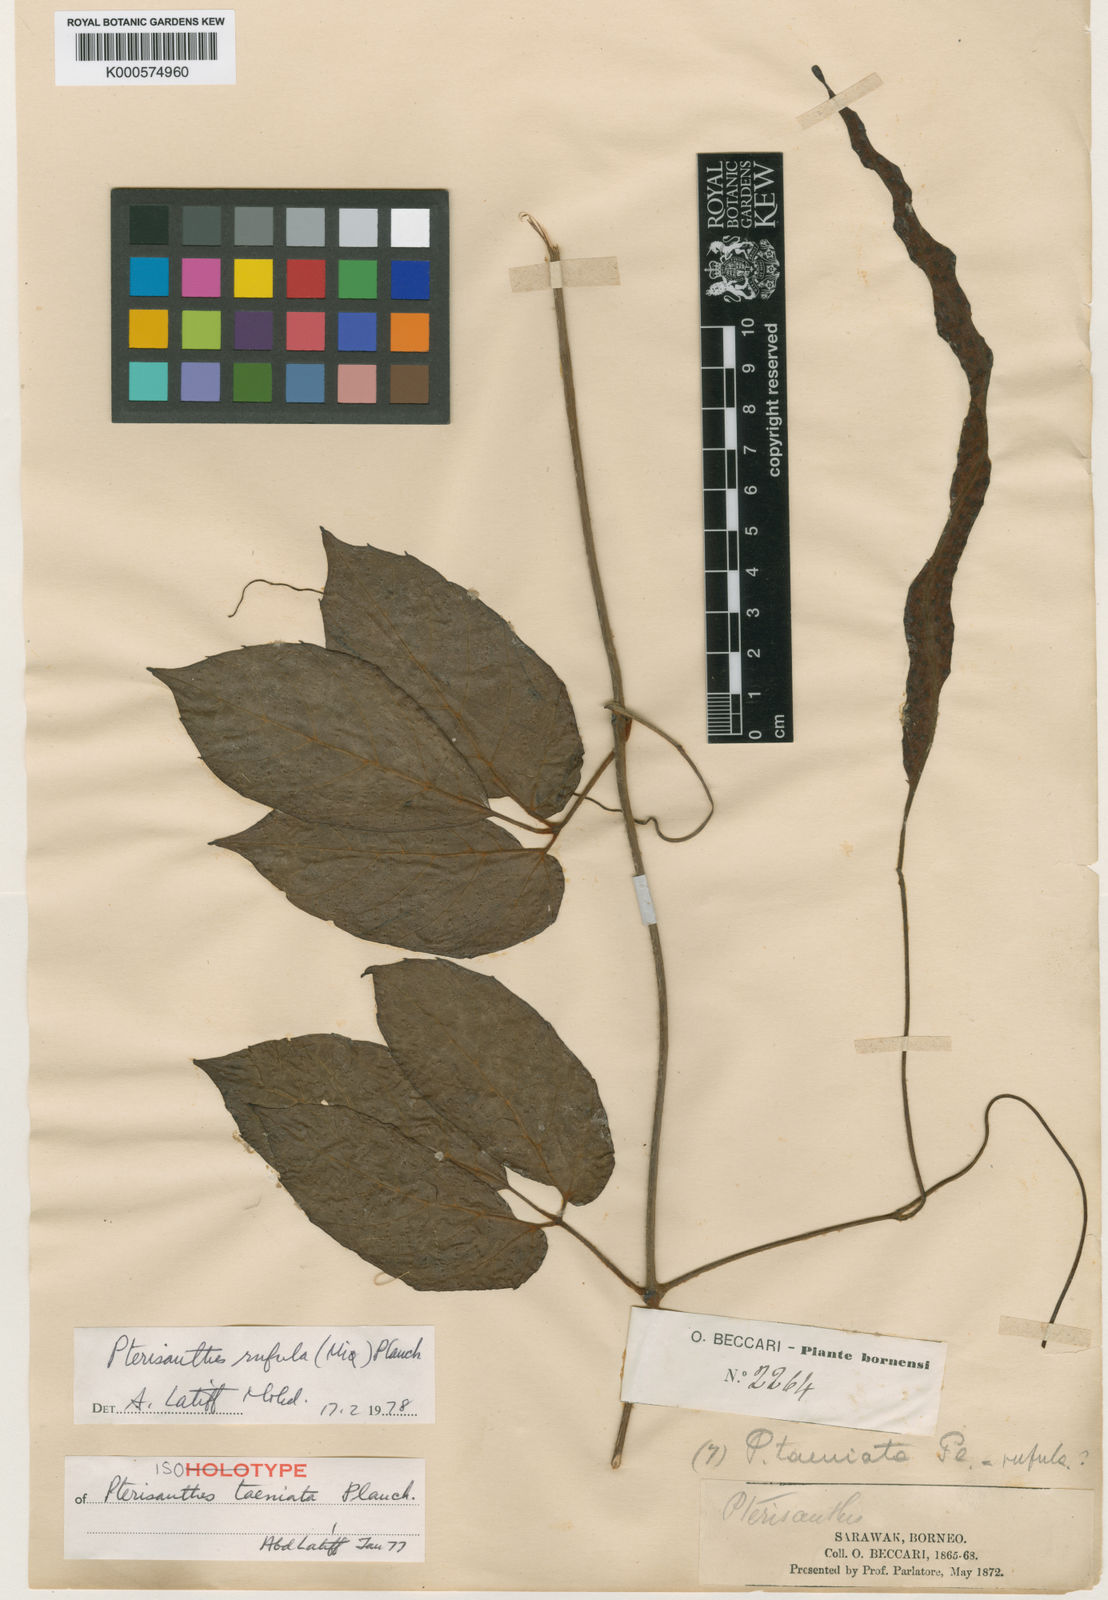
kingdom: Plantae
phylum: Tracheophyta
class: Magnoliopsida
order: Vitales
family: Vitaceae
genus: Pterisanthes
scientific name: Pterisanthes rufula
